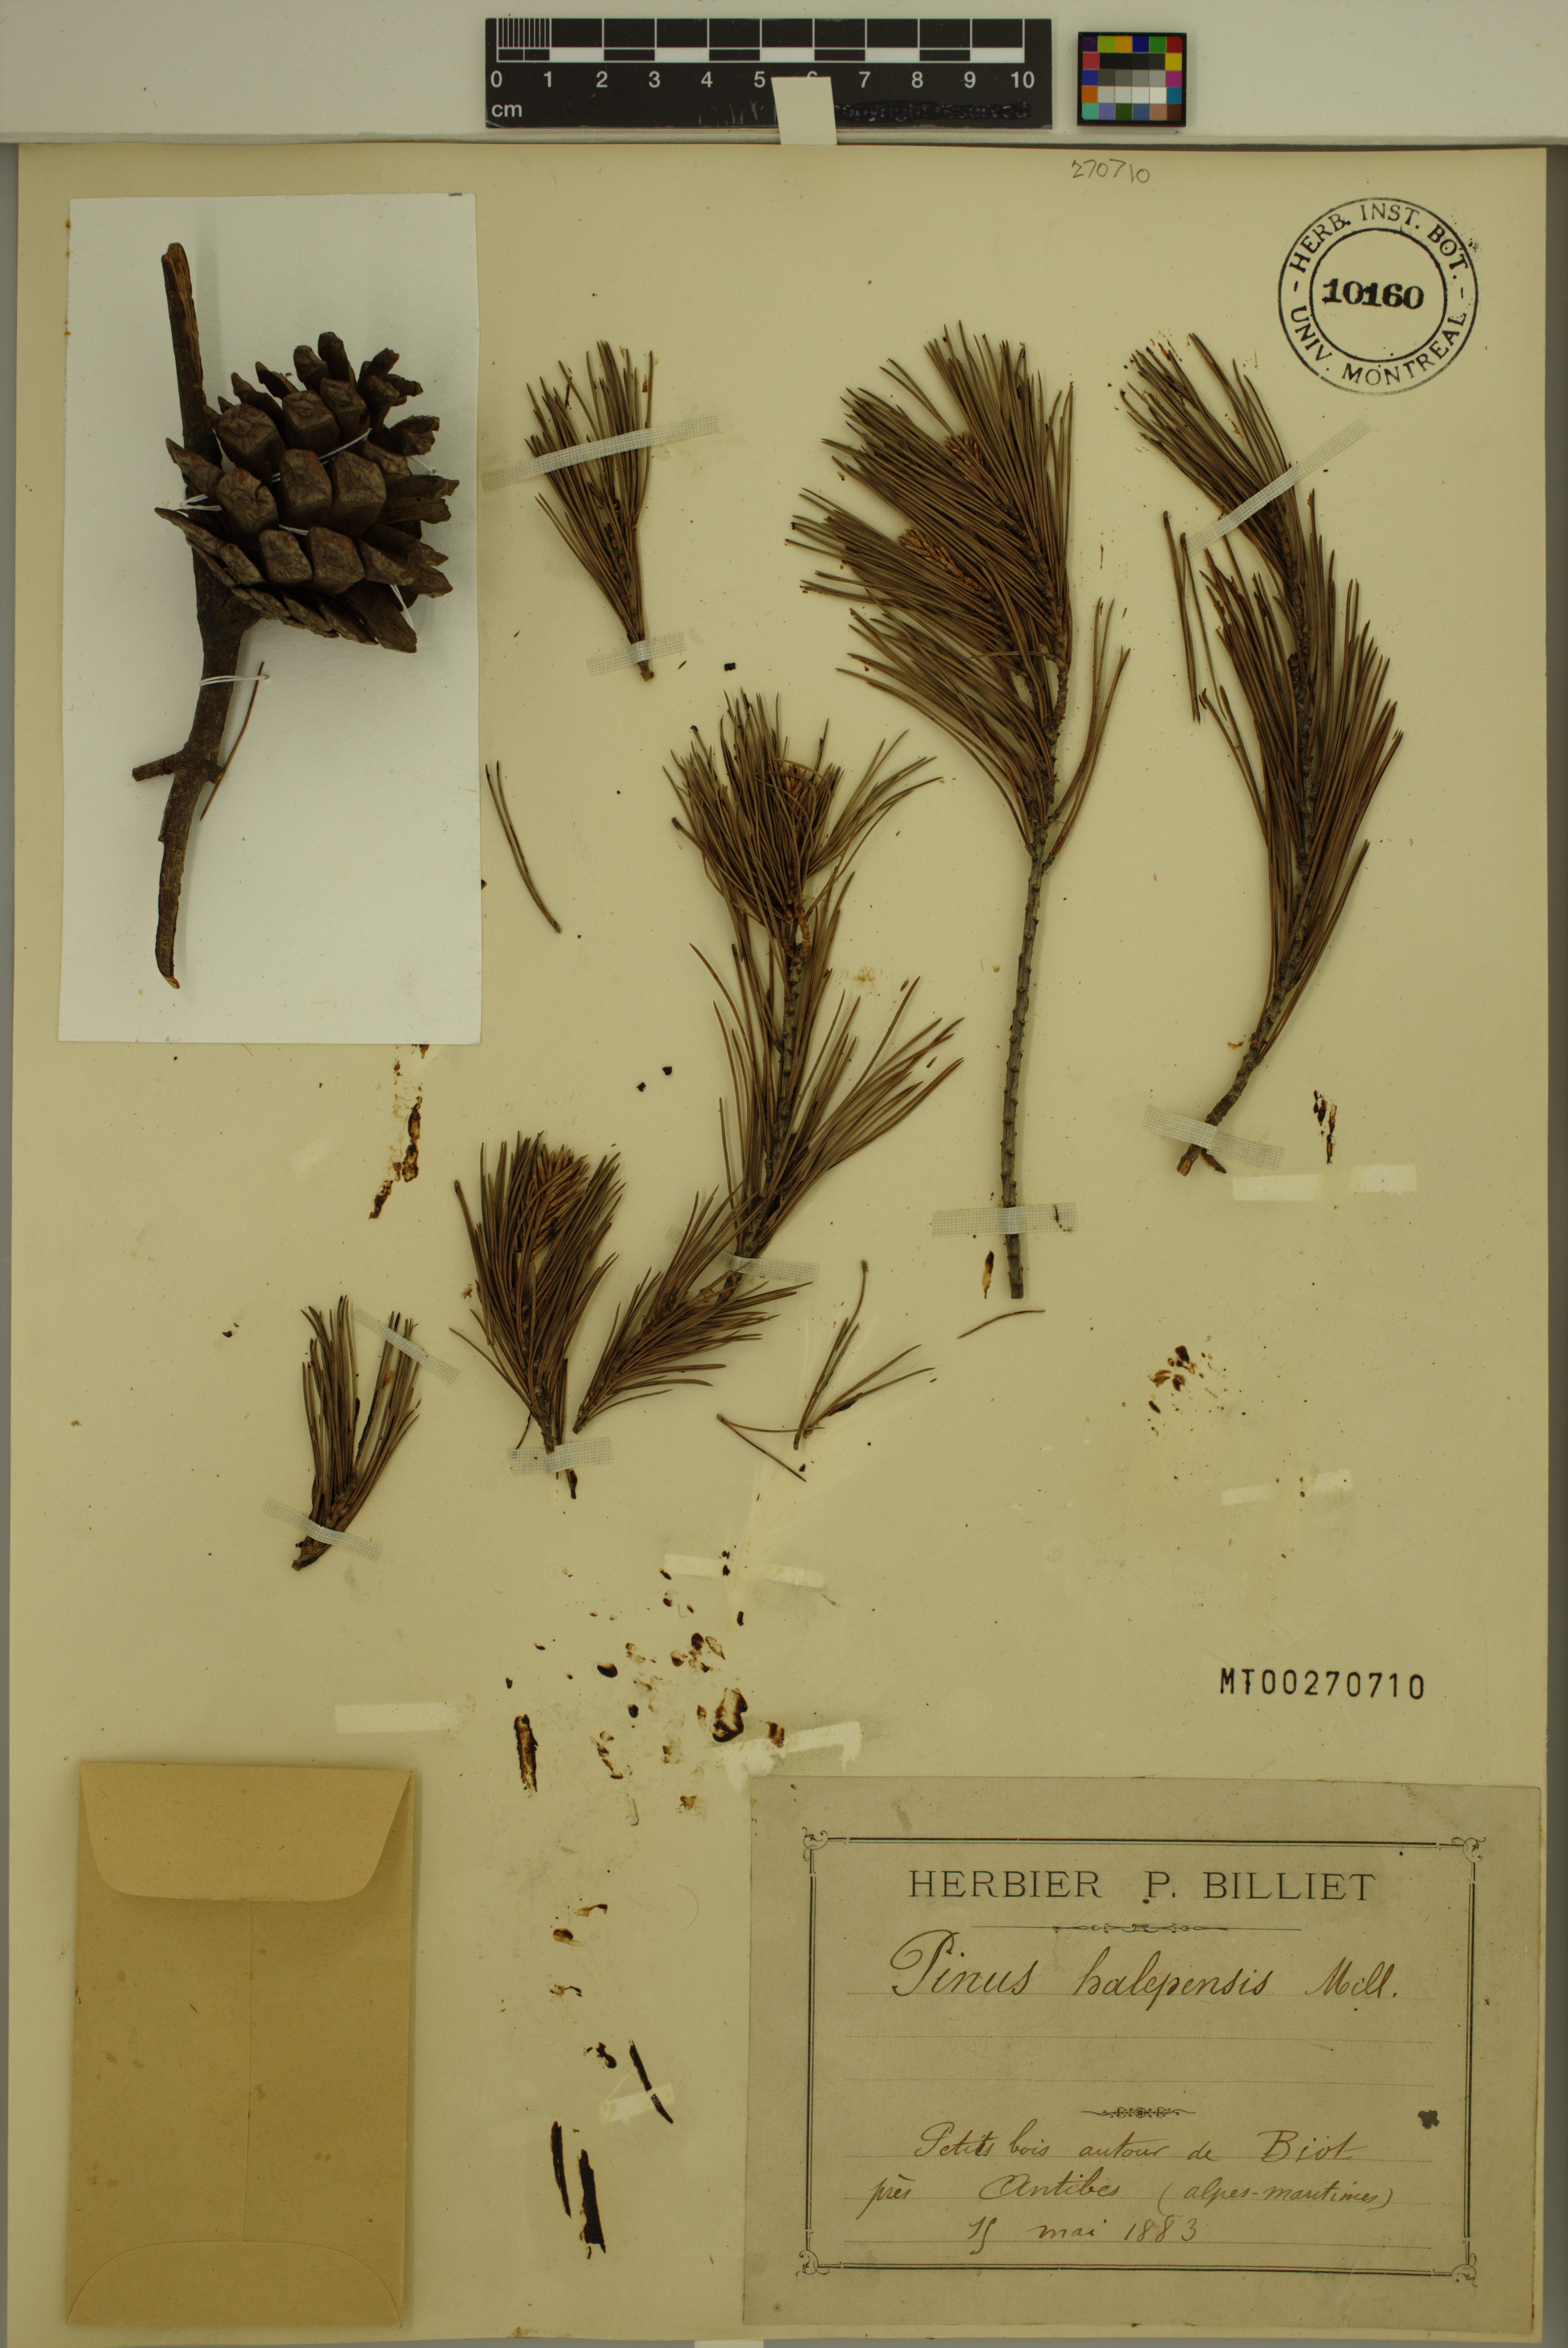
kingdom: Plantae
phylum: Tracheophyta
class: Pinopsida
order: Pinales
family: Pinaceae
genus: Pinus
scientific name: Pinus halepensis
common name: Aleppo pine
